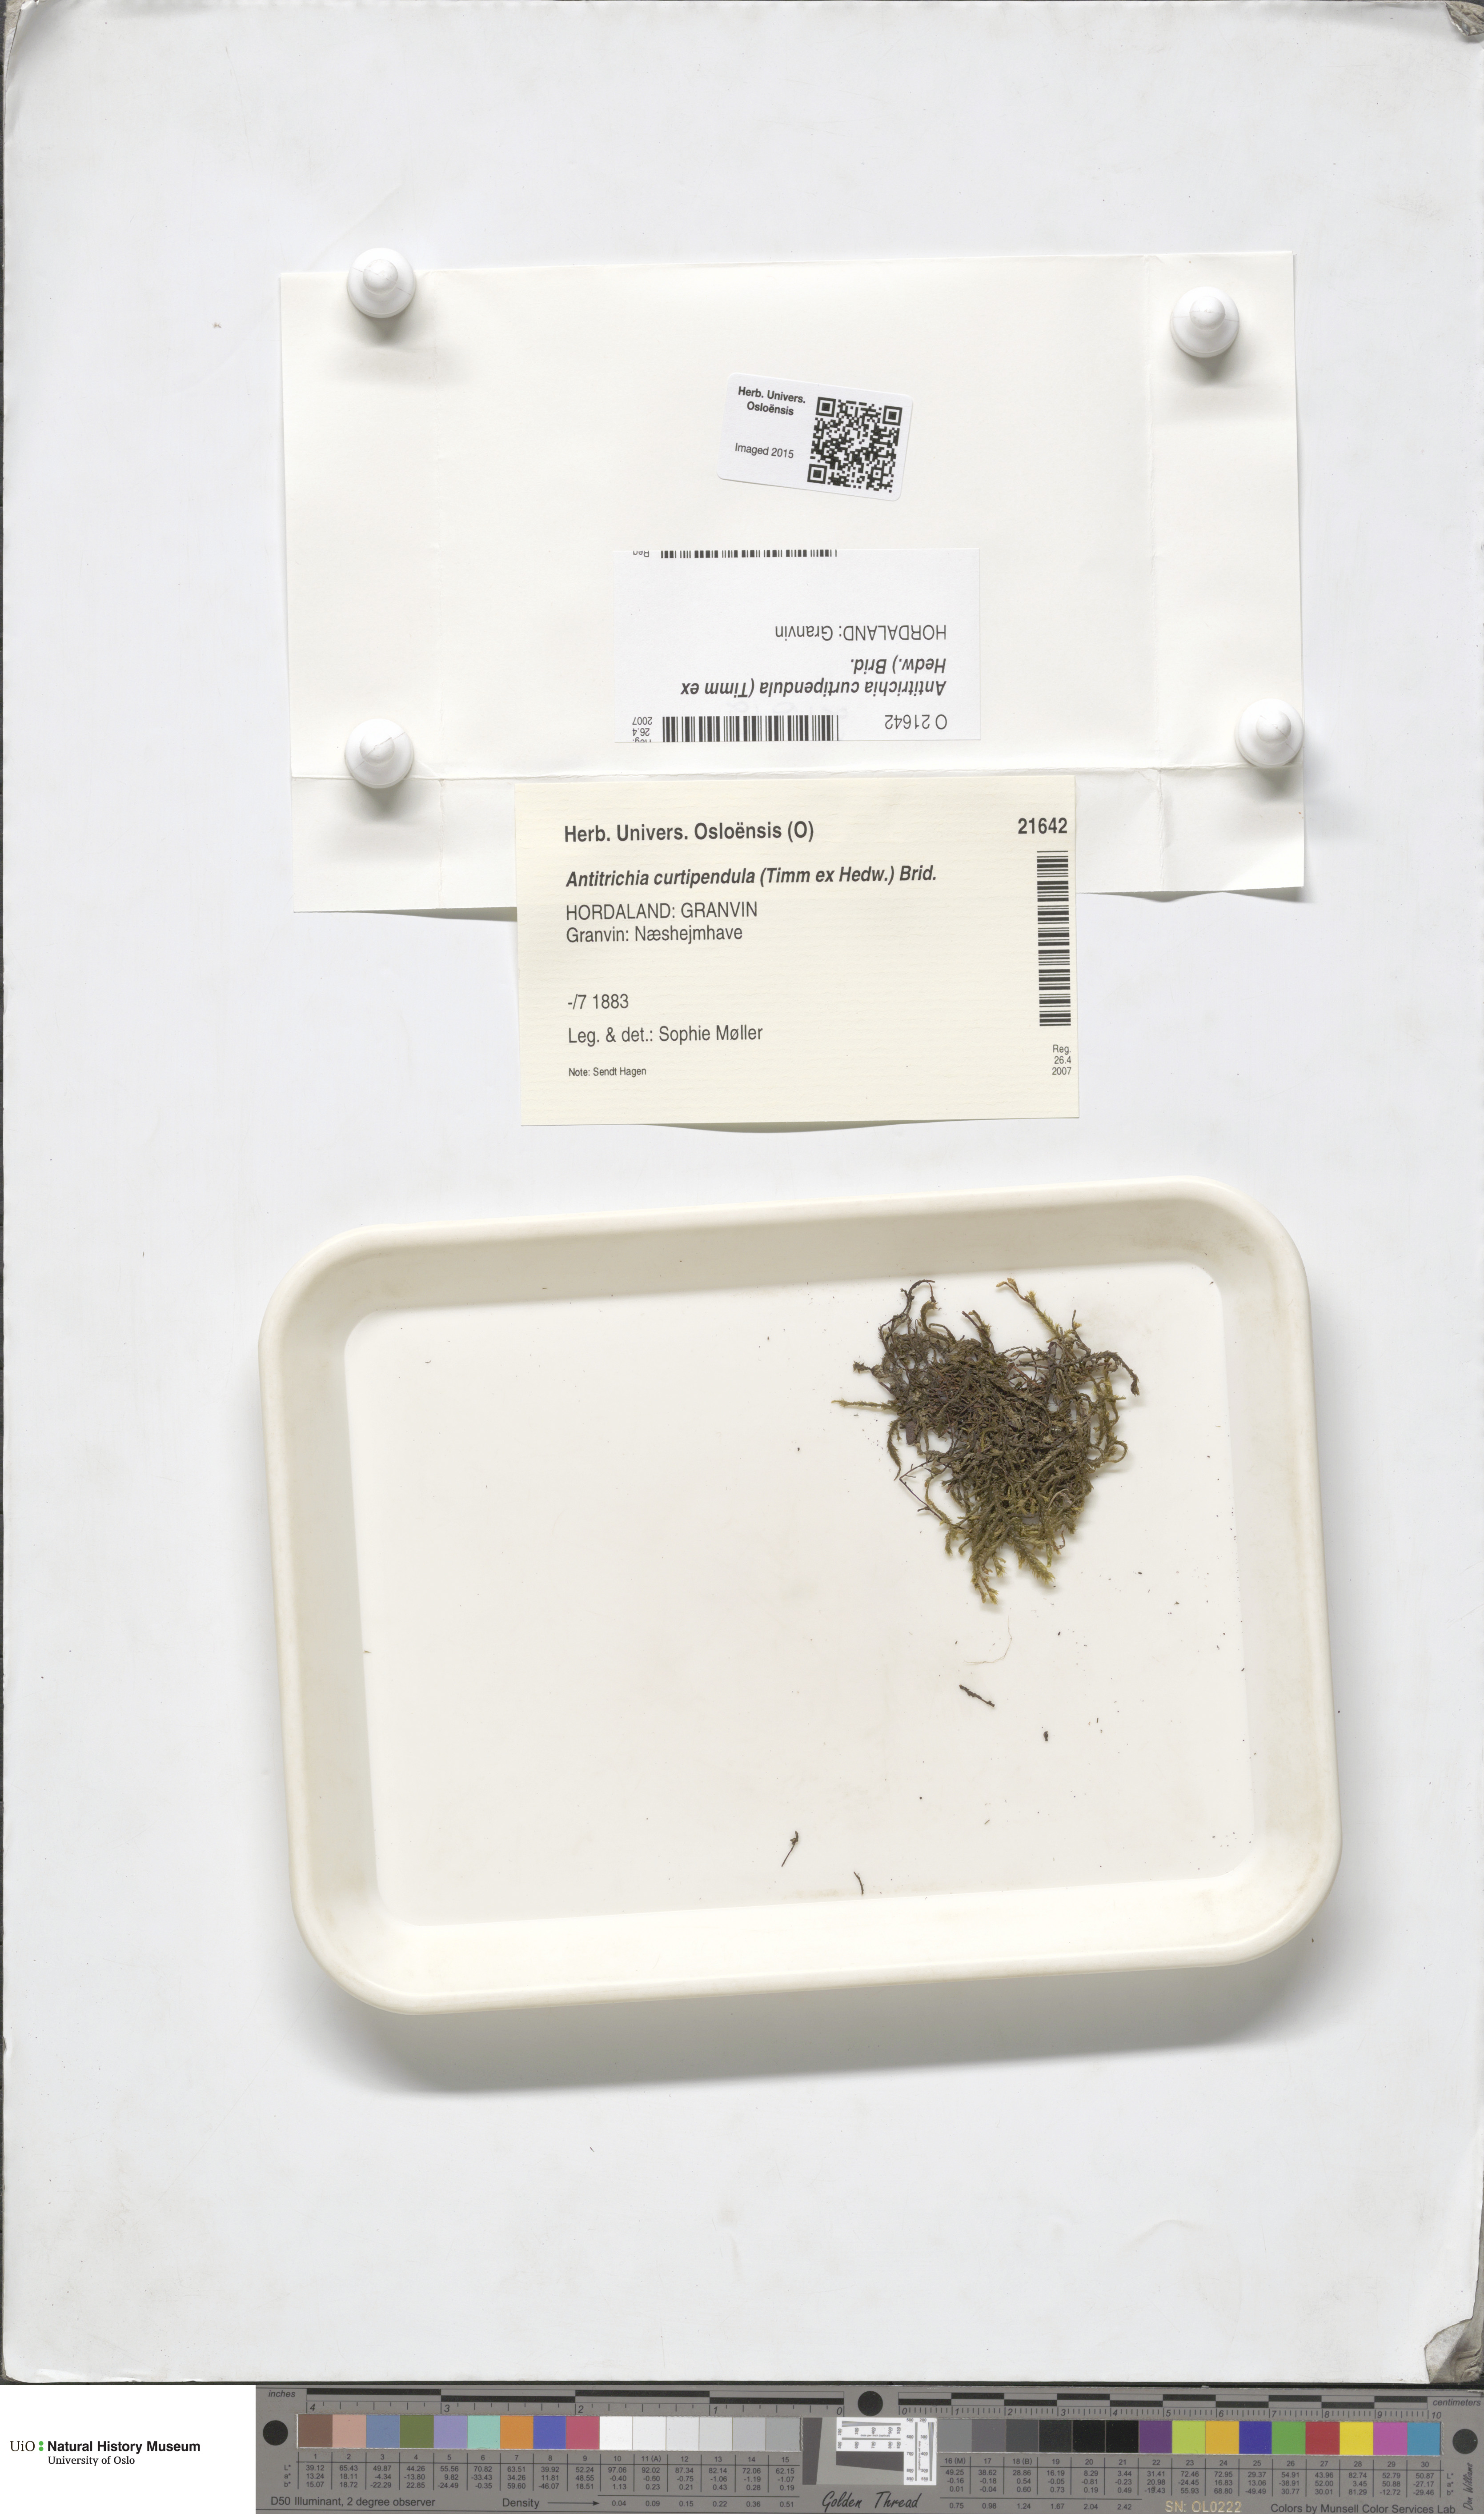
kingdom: Plantae
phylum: Bryophyta
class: Bryopsida
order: Hypnales
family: Antitrichiaceae
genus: Antitrichia
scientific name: Antitrichia curtipendula
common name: Pendulous wing-moss
